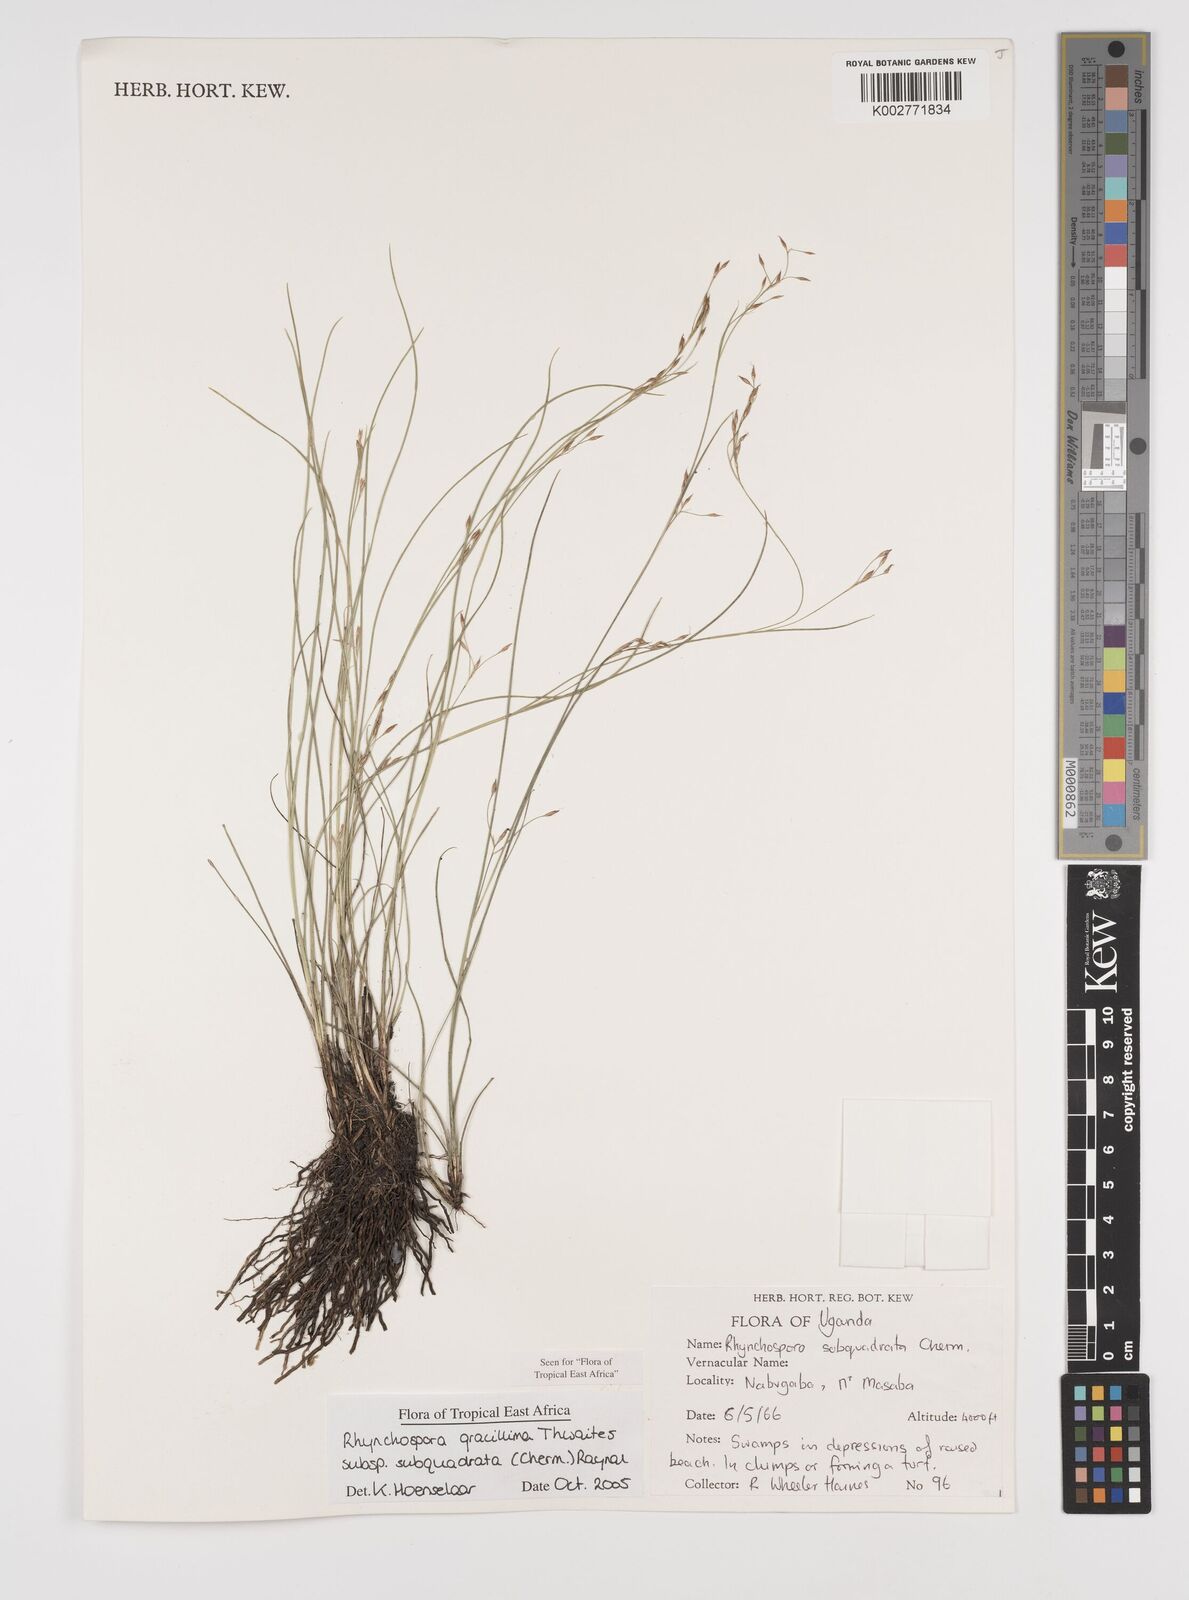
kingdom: Plantae
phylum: Tracheophyta
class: Liliopsida
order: Poales
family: Cyperaceae
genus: Rhynchospora
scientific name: Rhynchospora gracillima
